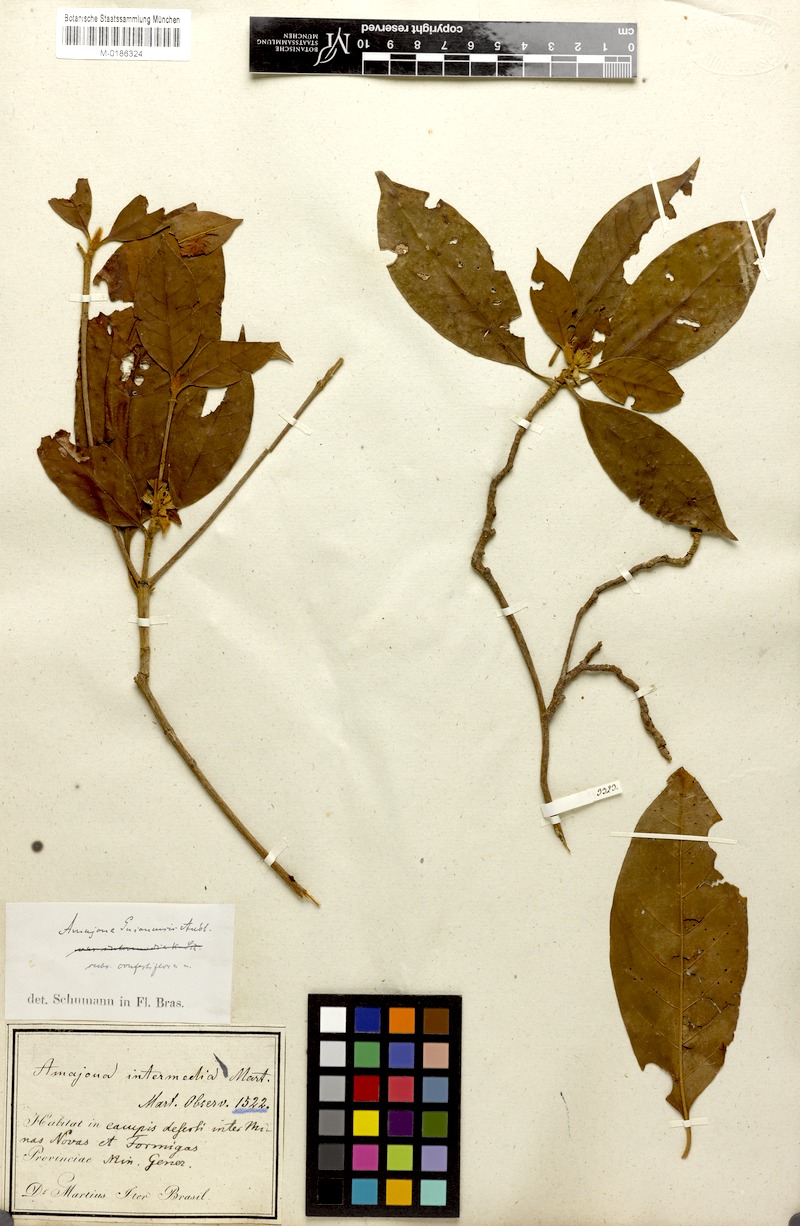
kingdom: Plantae
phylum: Tracheophyta
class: Magnoliopsida
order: Gentianales
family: Rubiaceae
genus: Amaioua
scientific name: Amaioua intermedia
